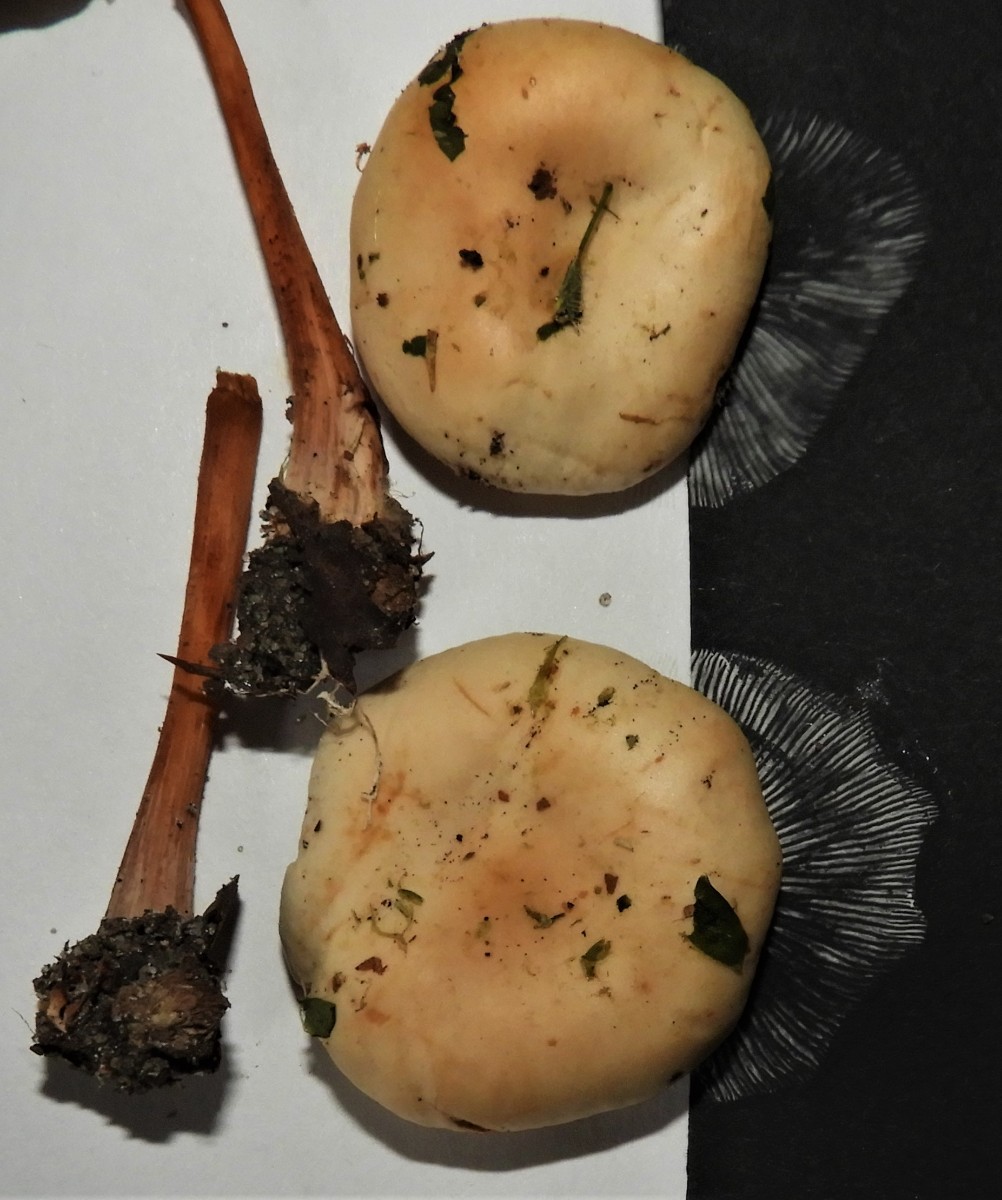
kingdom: Fungi
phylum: Basidiomycota
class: Agaricomycetes
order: Agaricales
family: Omphalotaceae
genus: Gymnopus
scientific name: Gymnopus
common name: fladhat
